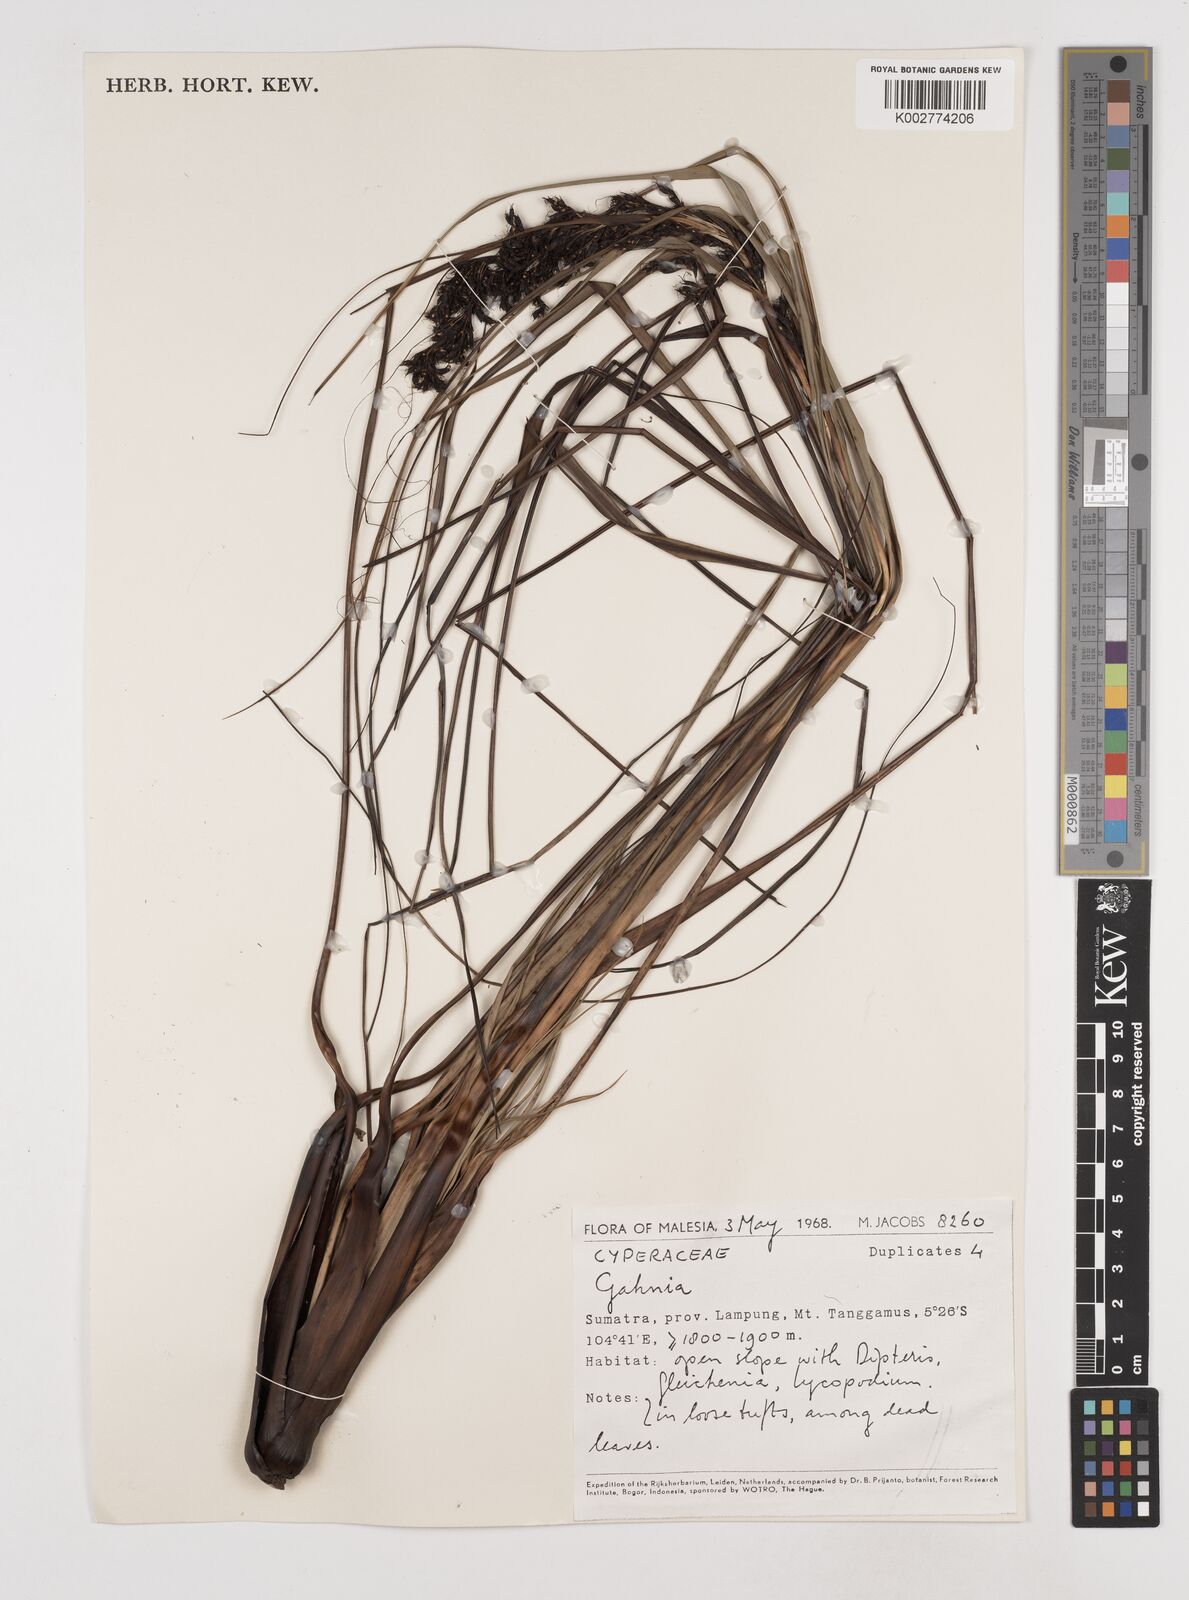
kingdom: Plantae
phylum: Tracheophyta
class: Liliopsida
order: Poales
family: Cyperaceae
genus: Gahnia
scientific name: Gahnia
